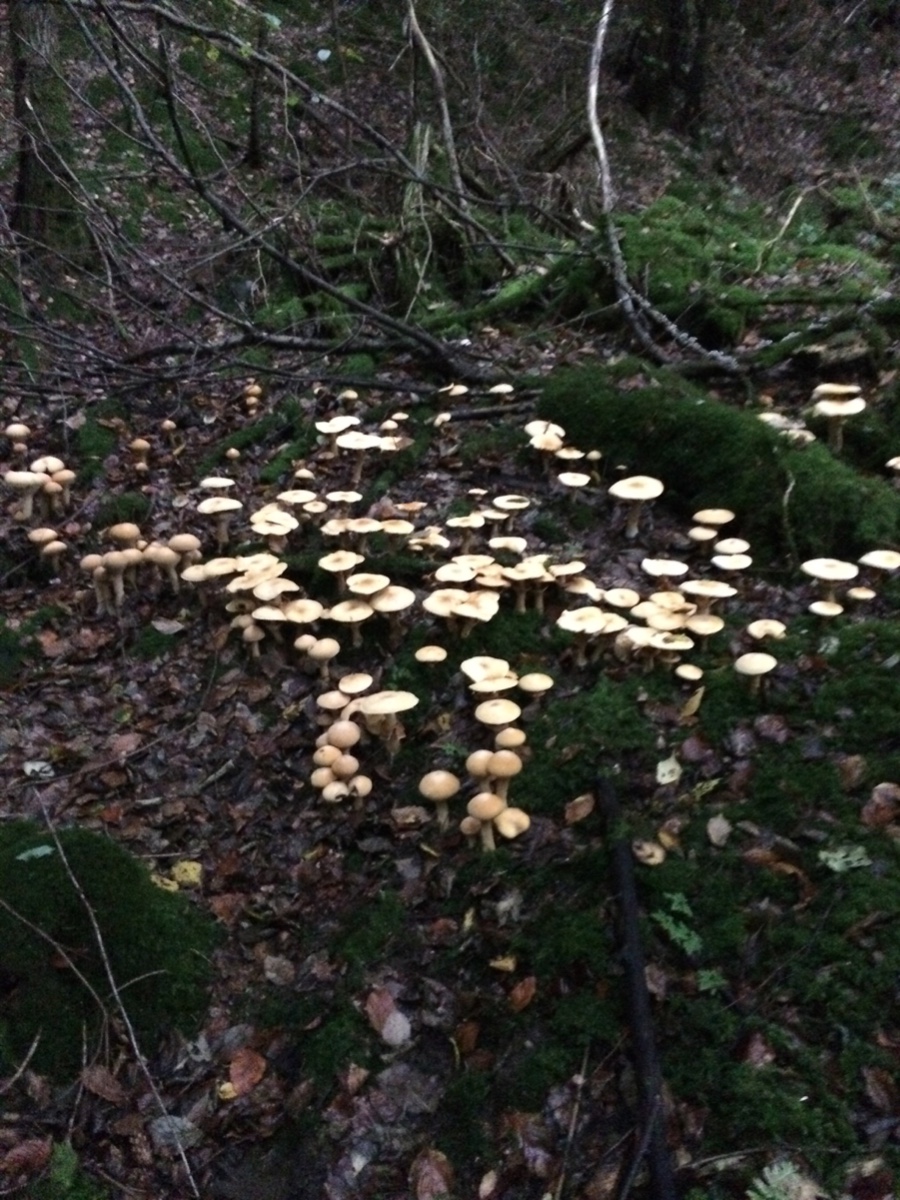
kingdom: Fungi
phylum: Basidiomycota
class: Agaricomycetes
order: Agaricales
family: Tricholomataceae
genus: Phaeolepiota
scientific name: Phaeolepiota aurea
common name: gyldenhat
